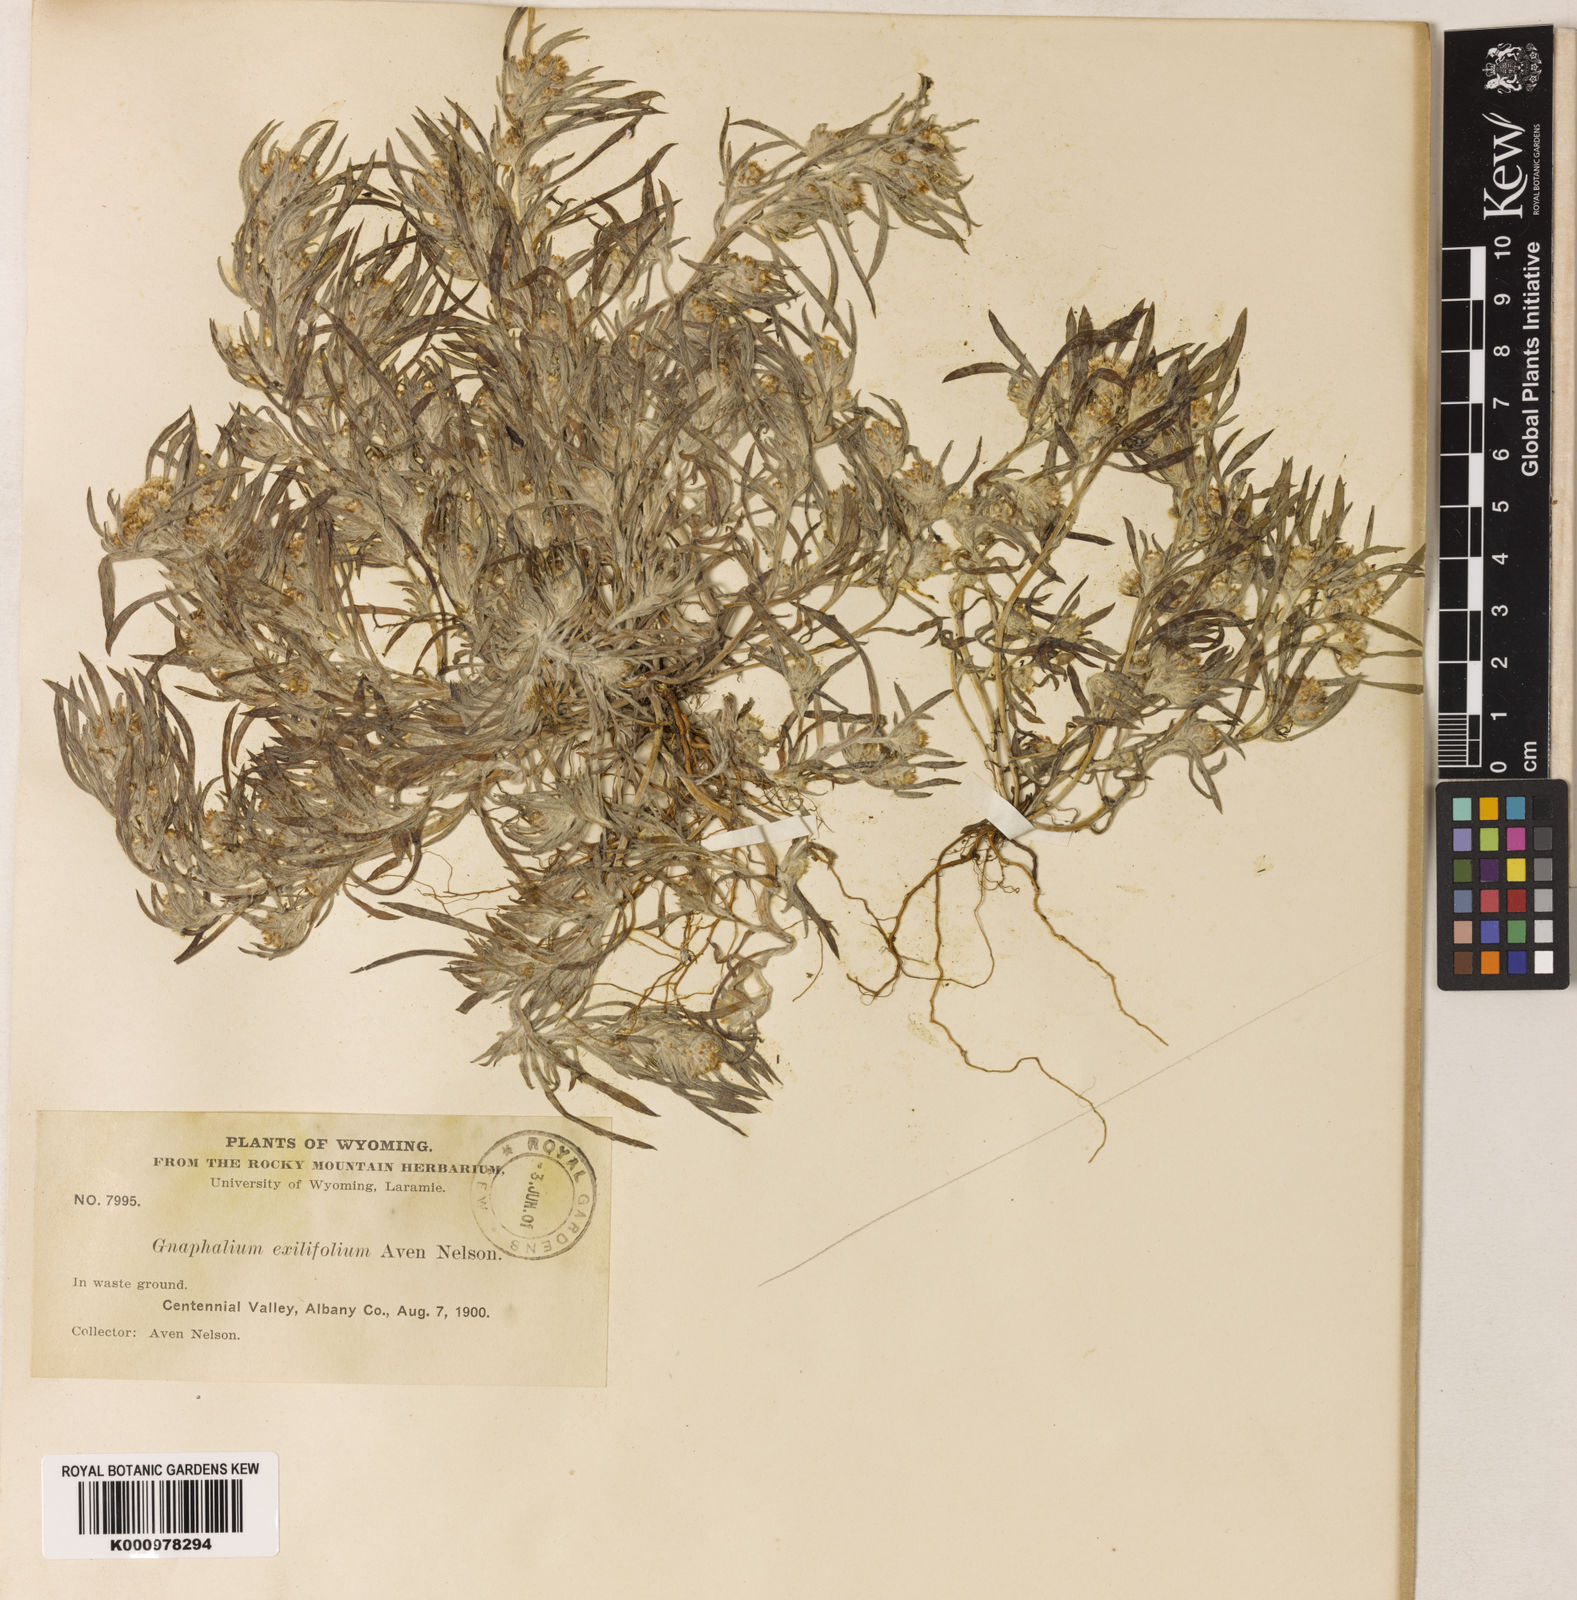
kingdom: Plantae
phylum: Tracheophyta
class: Magnoliopsida
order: Asterales
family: Asteraceae
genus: Gnaphalium
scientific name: Gnaphalium exilifolium
